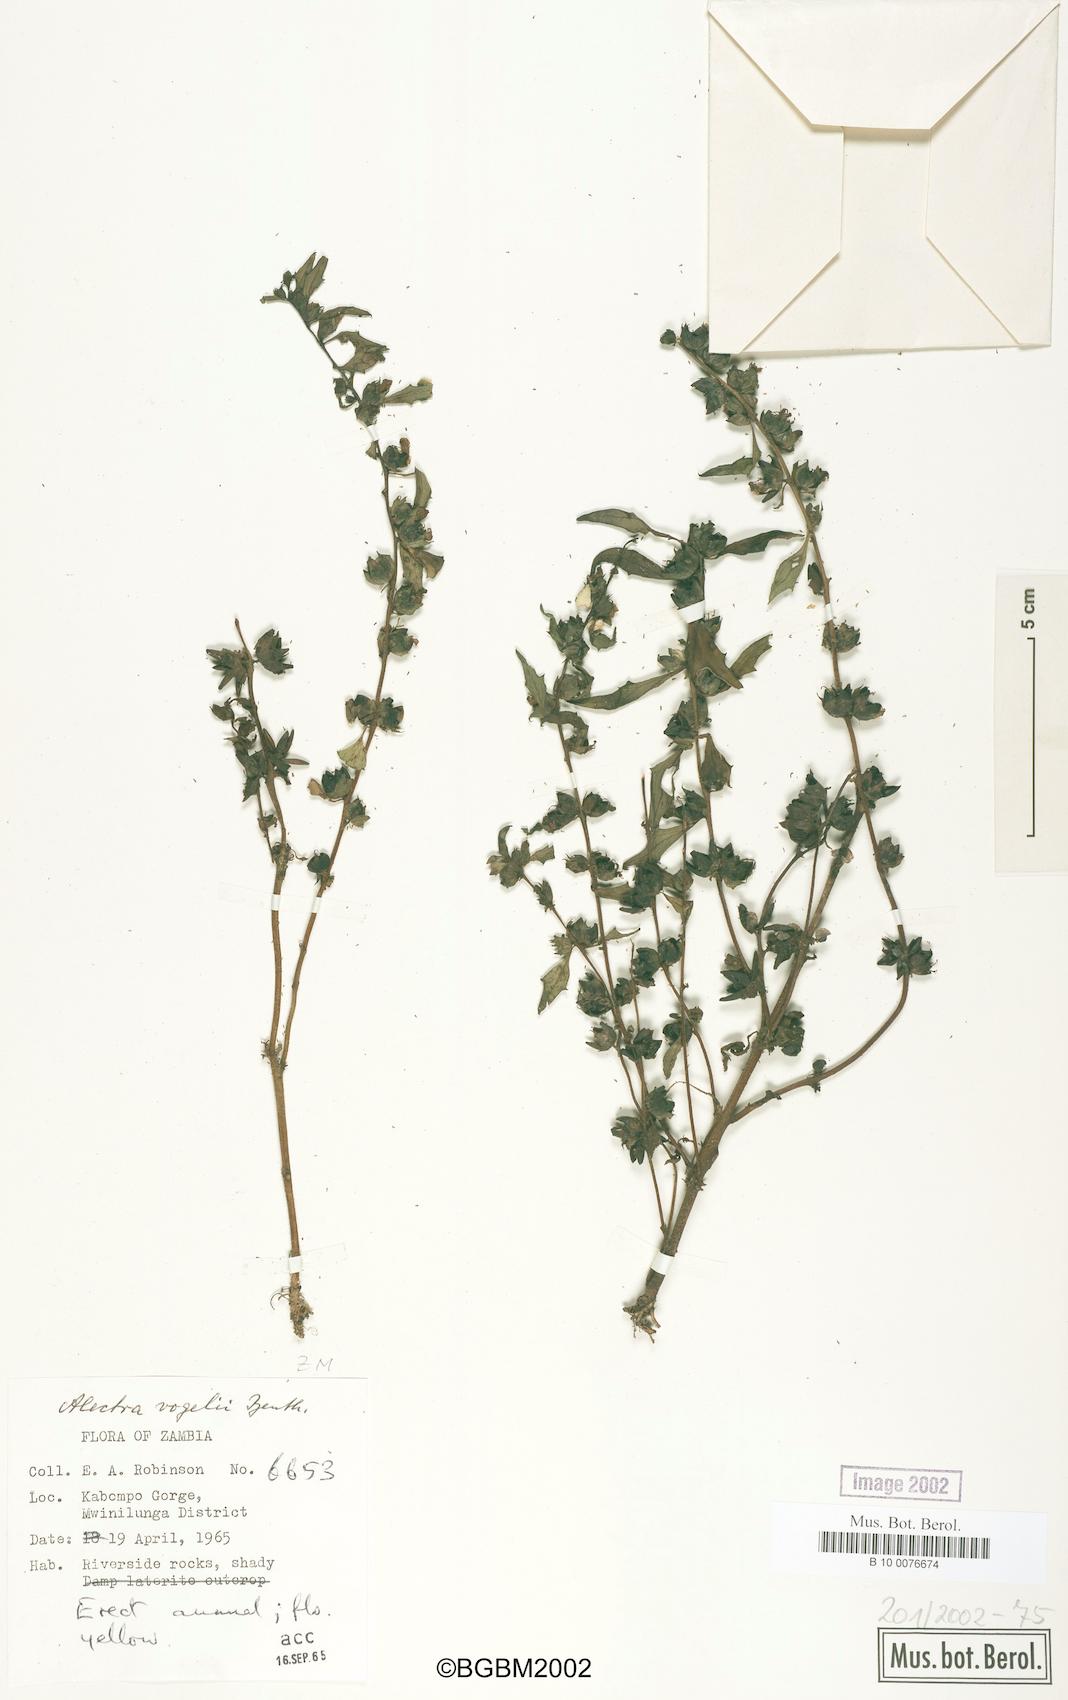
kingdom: Plantae
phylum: Tracheophyta
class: Magnoliopsida
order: Lamiales
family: Orobanchaceae
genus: Alectra
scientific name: Alectra vogelii
